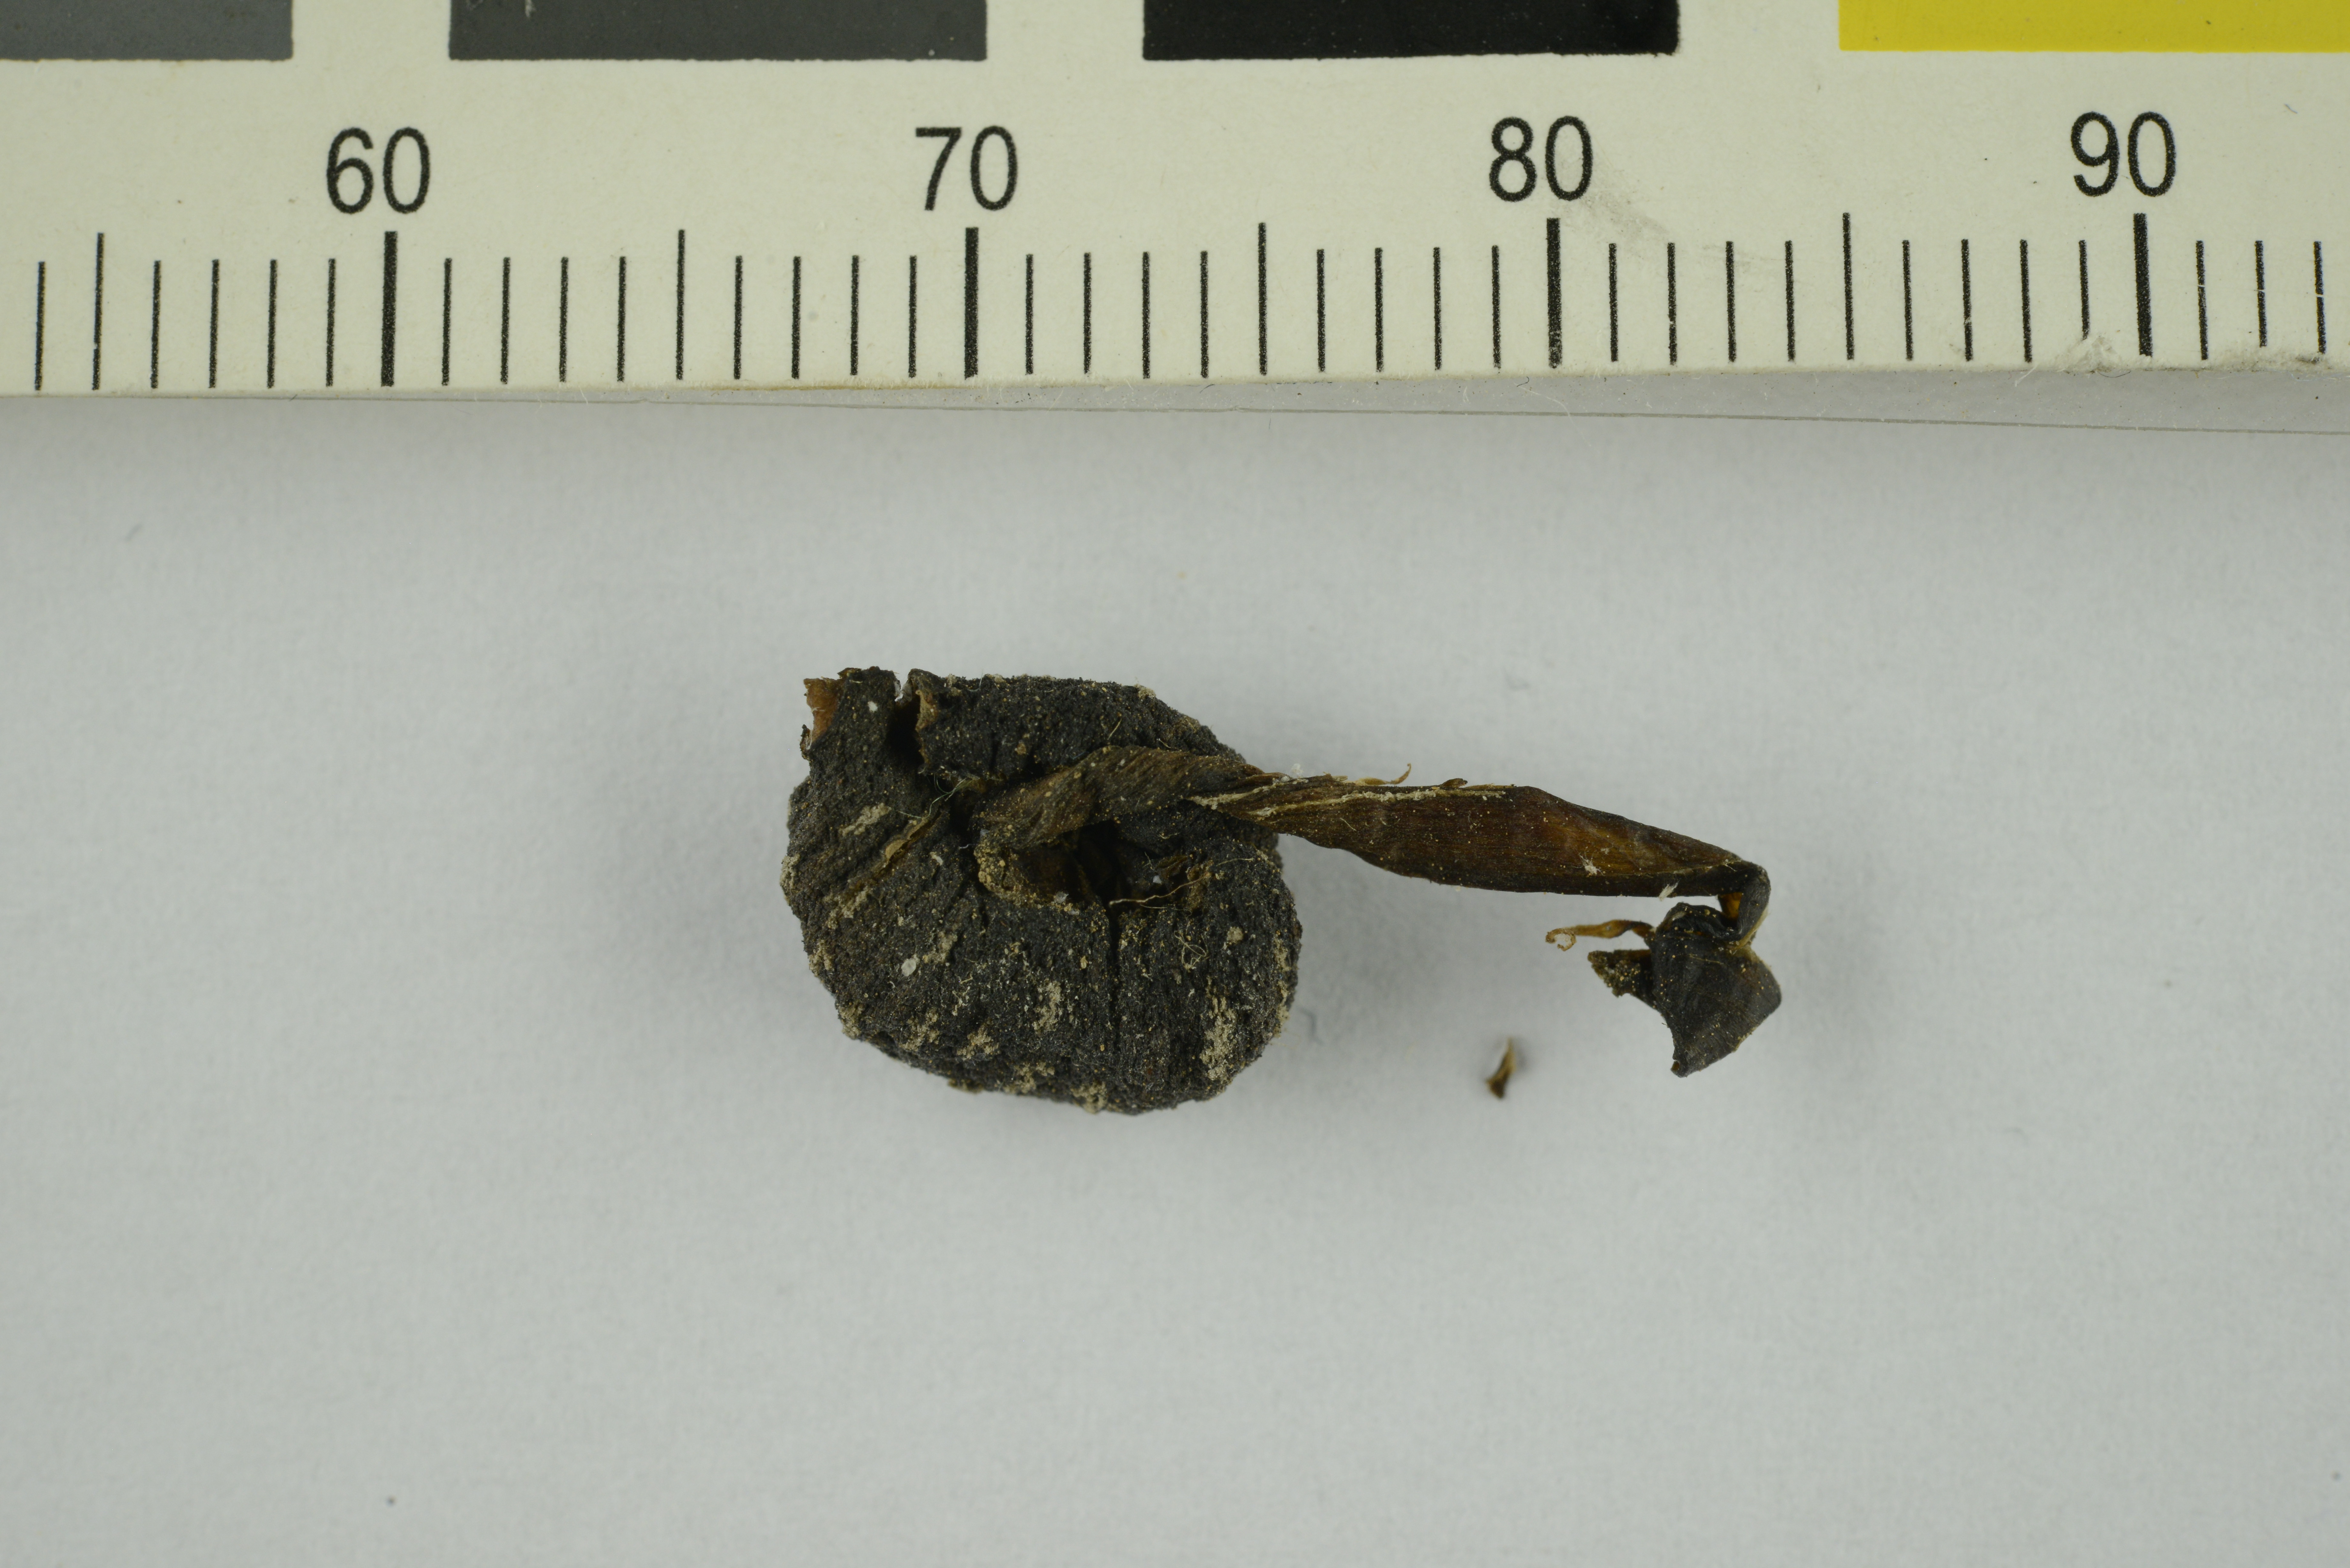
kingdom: Fungi
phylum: Basidiomycota
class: Agaricomycetes
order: Agaricales
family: Entolomataceae
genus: Entoloma
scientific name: Entoloma
